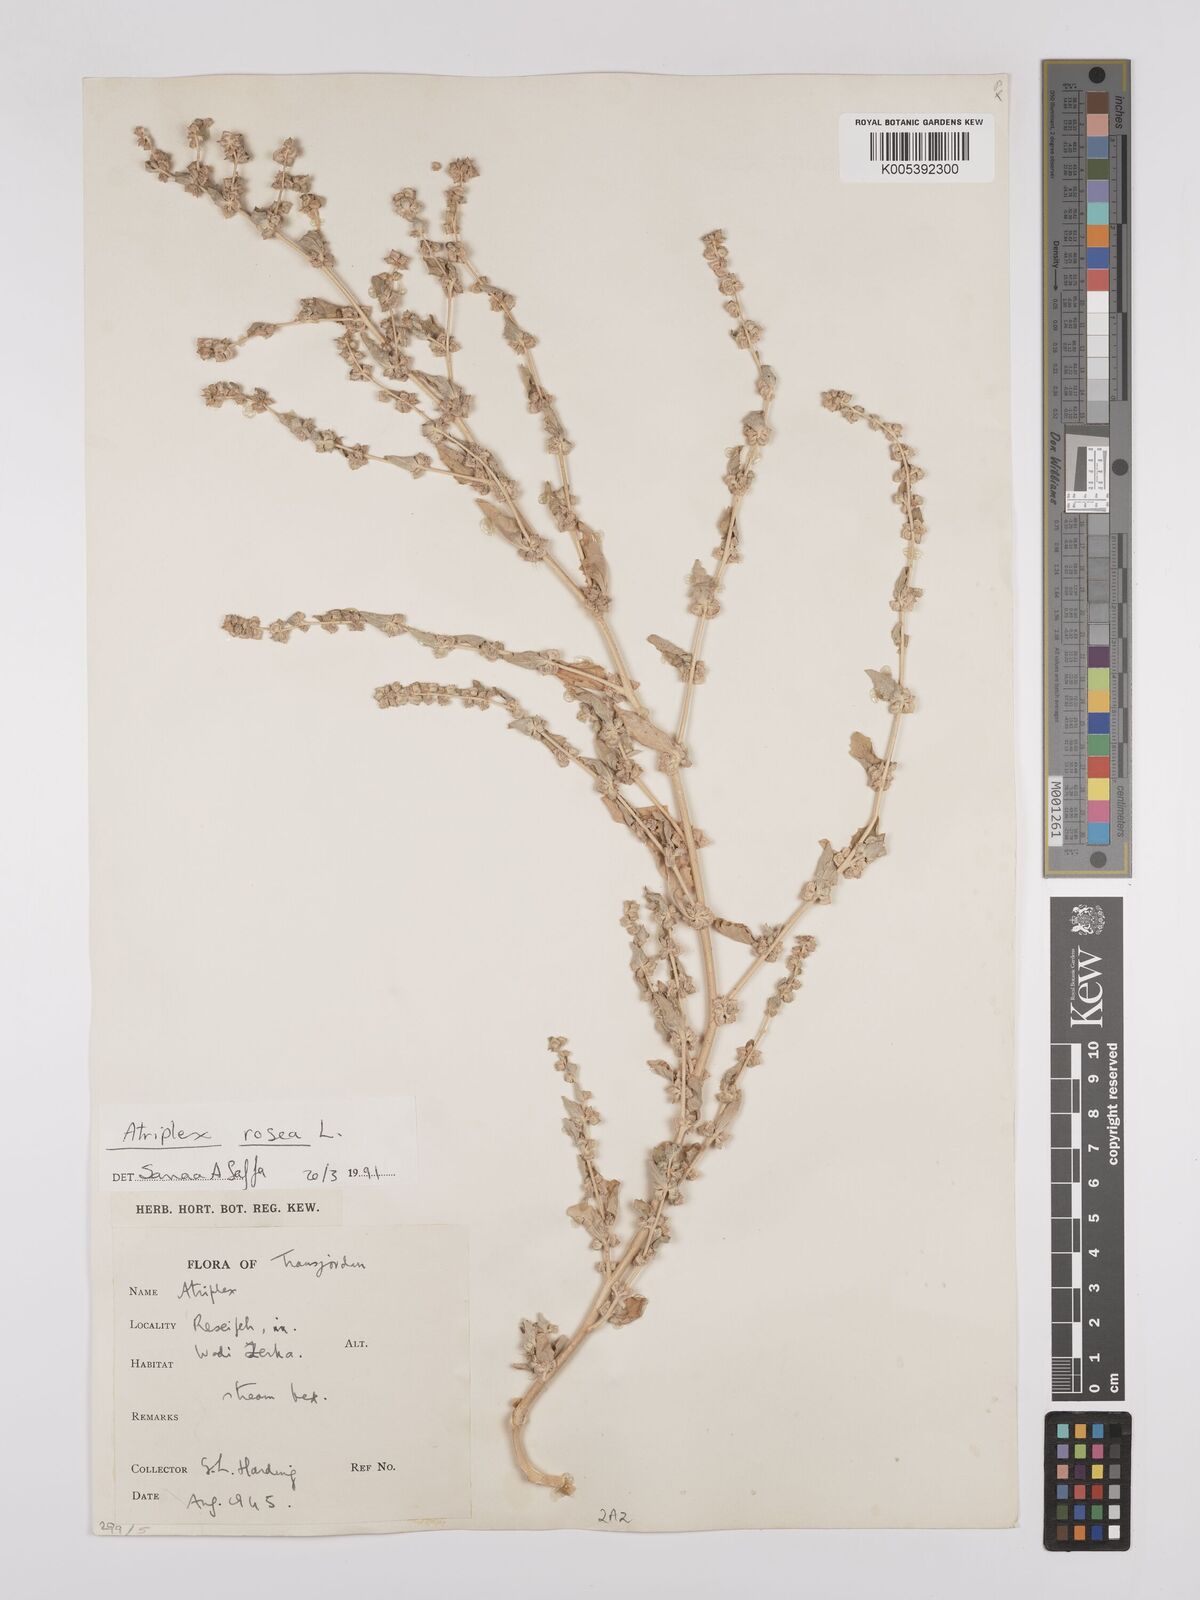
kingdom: Plantae
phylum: Tracheophyta
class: Magnoliopsida
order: Caryophyllales
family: Amaranthaceae
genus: Atriplex
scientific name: Atriplex
